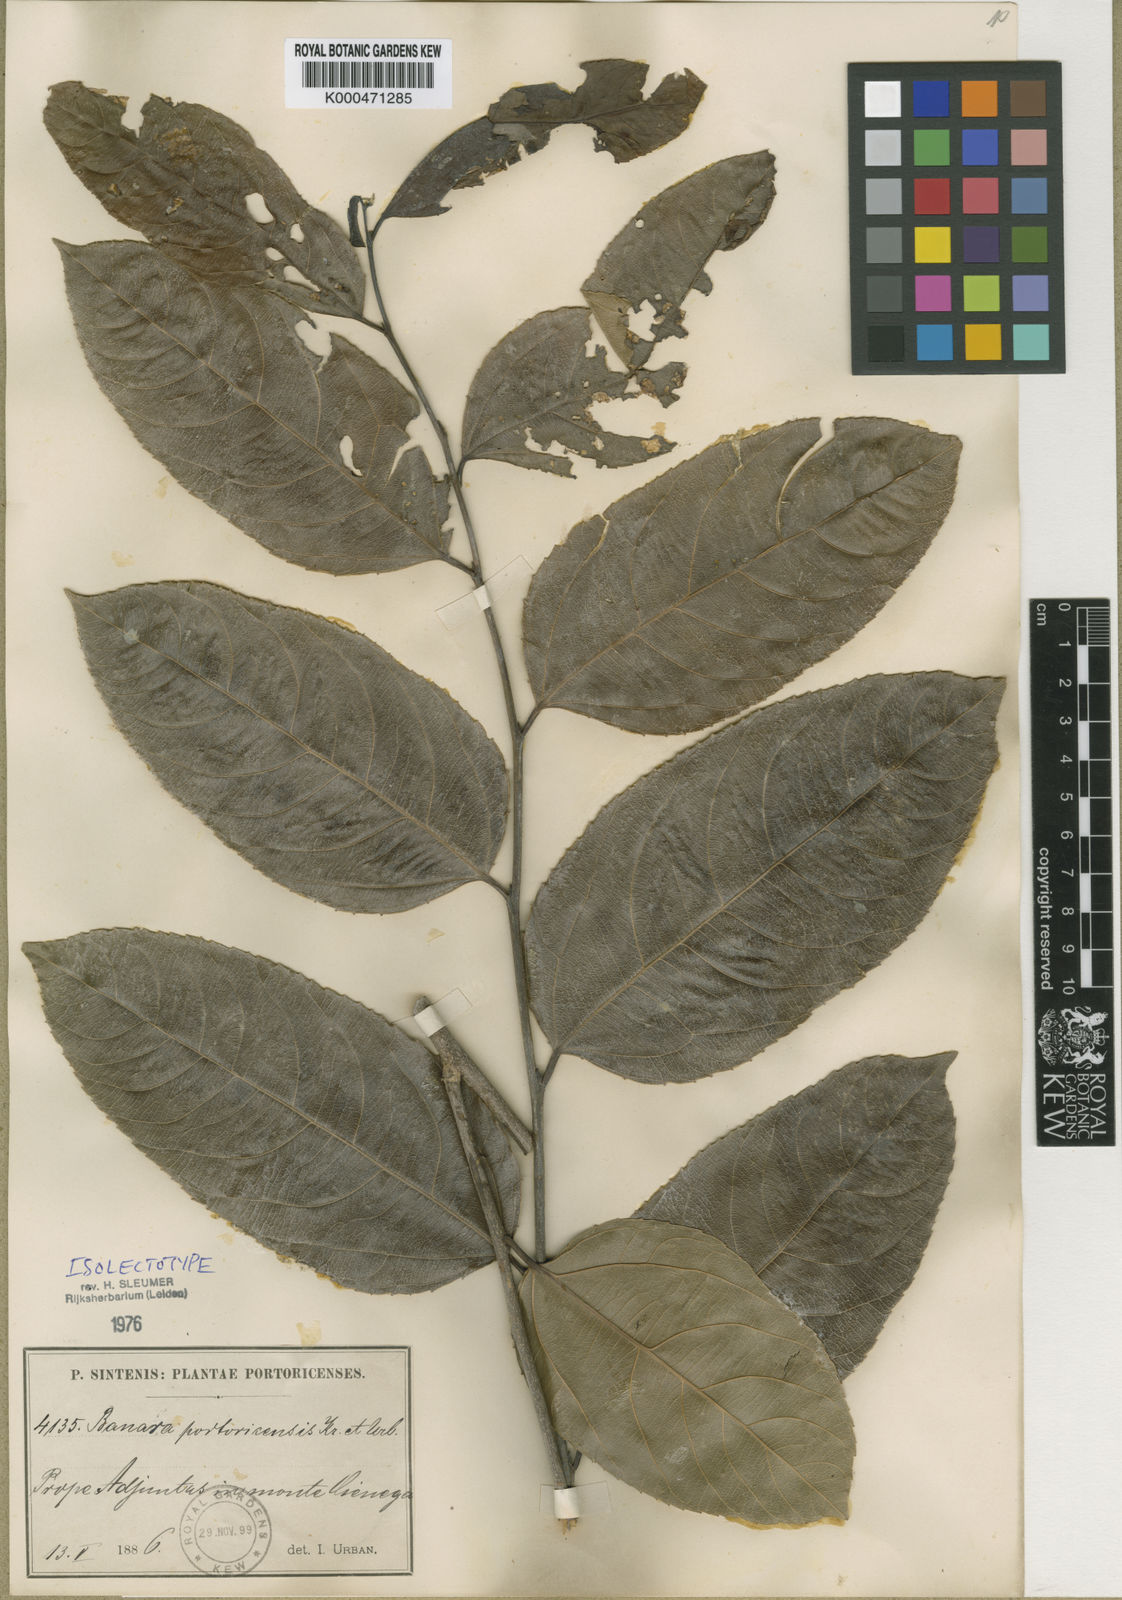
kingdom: Plantae
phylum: Tracheophyta
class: Magnoliopsida
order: Malpighiales
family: Salicaceae
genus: Banara
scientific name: Banara portoricensis
